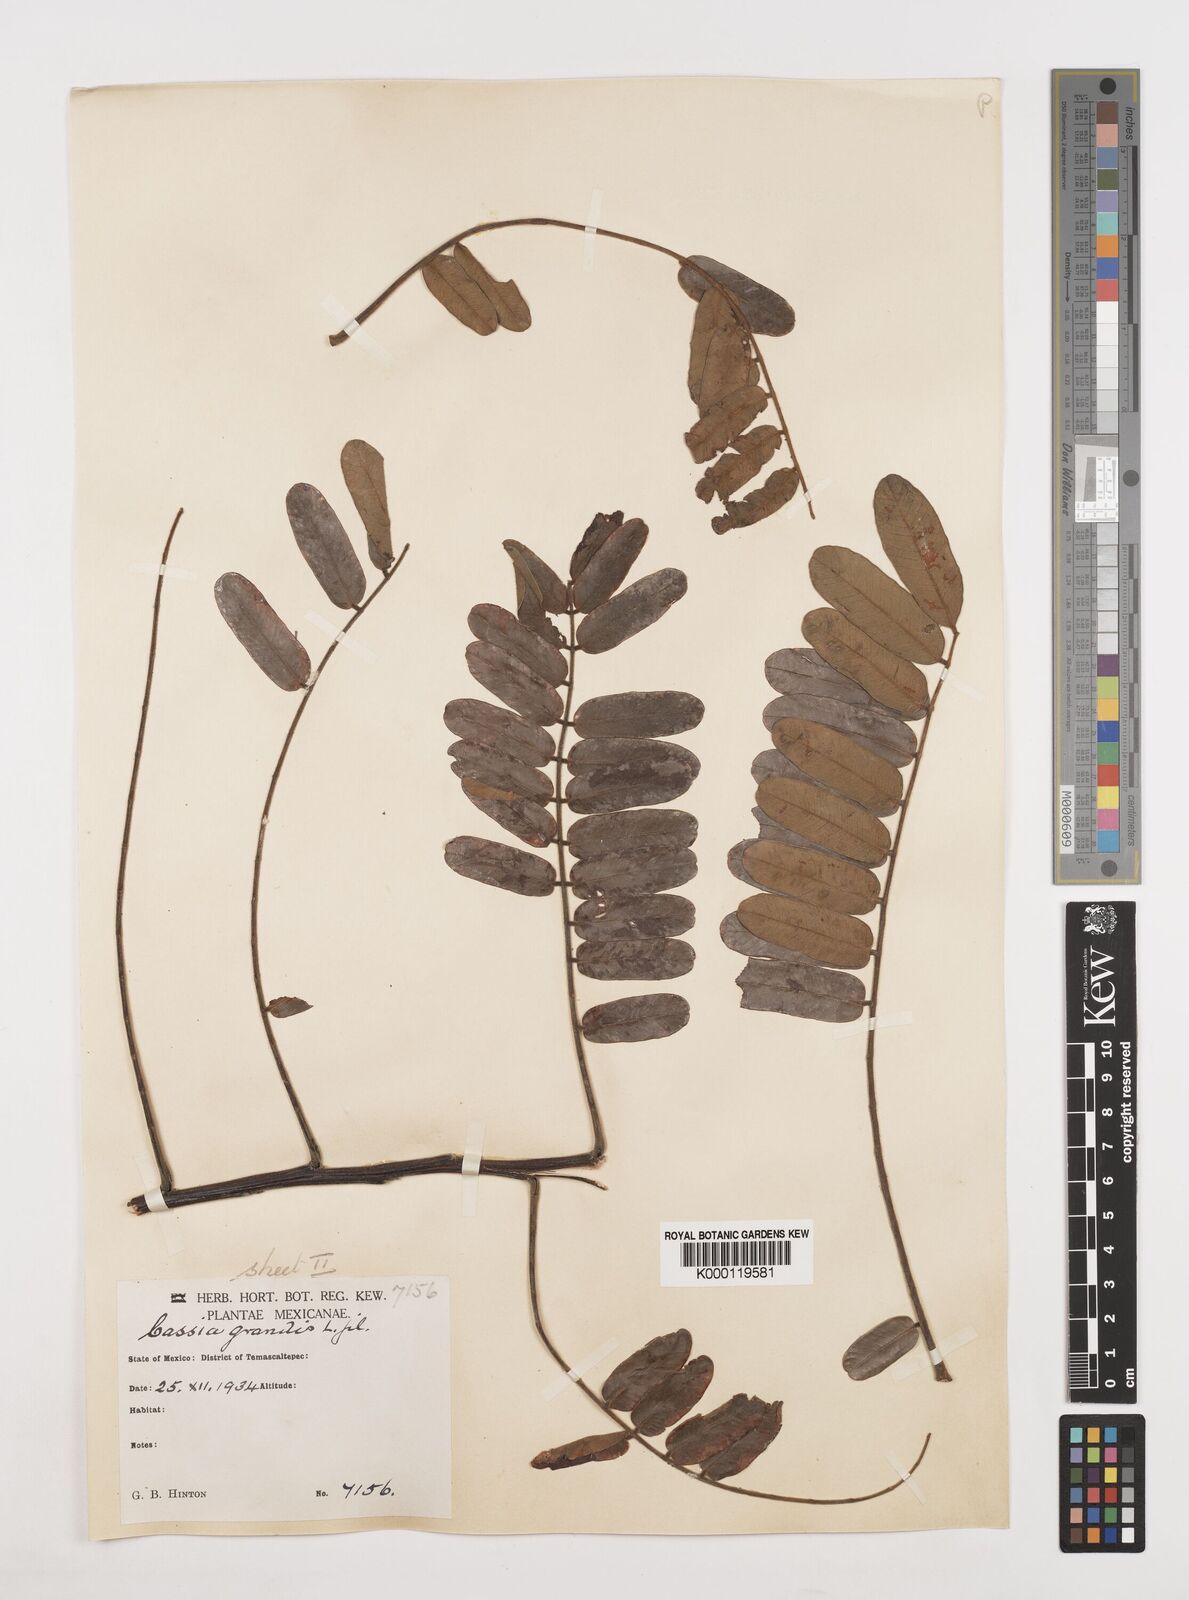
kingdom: Plantae
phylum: Tracheophyta
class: Magnoliopsida
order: Fabales
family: Fabaceae
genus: Cassia
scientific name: Cassia grandis
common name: Appleblossom cassia
